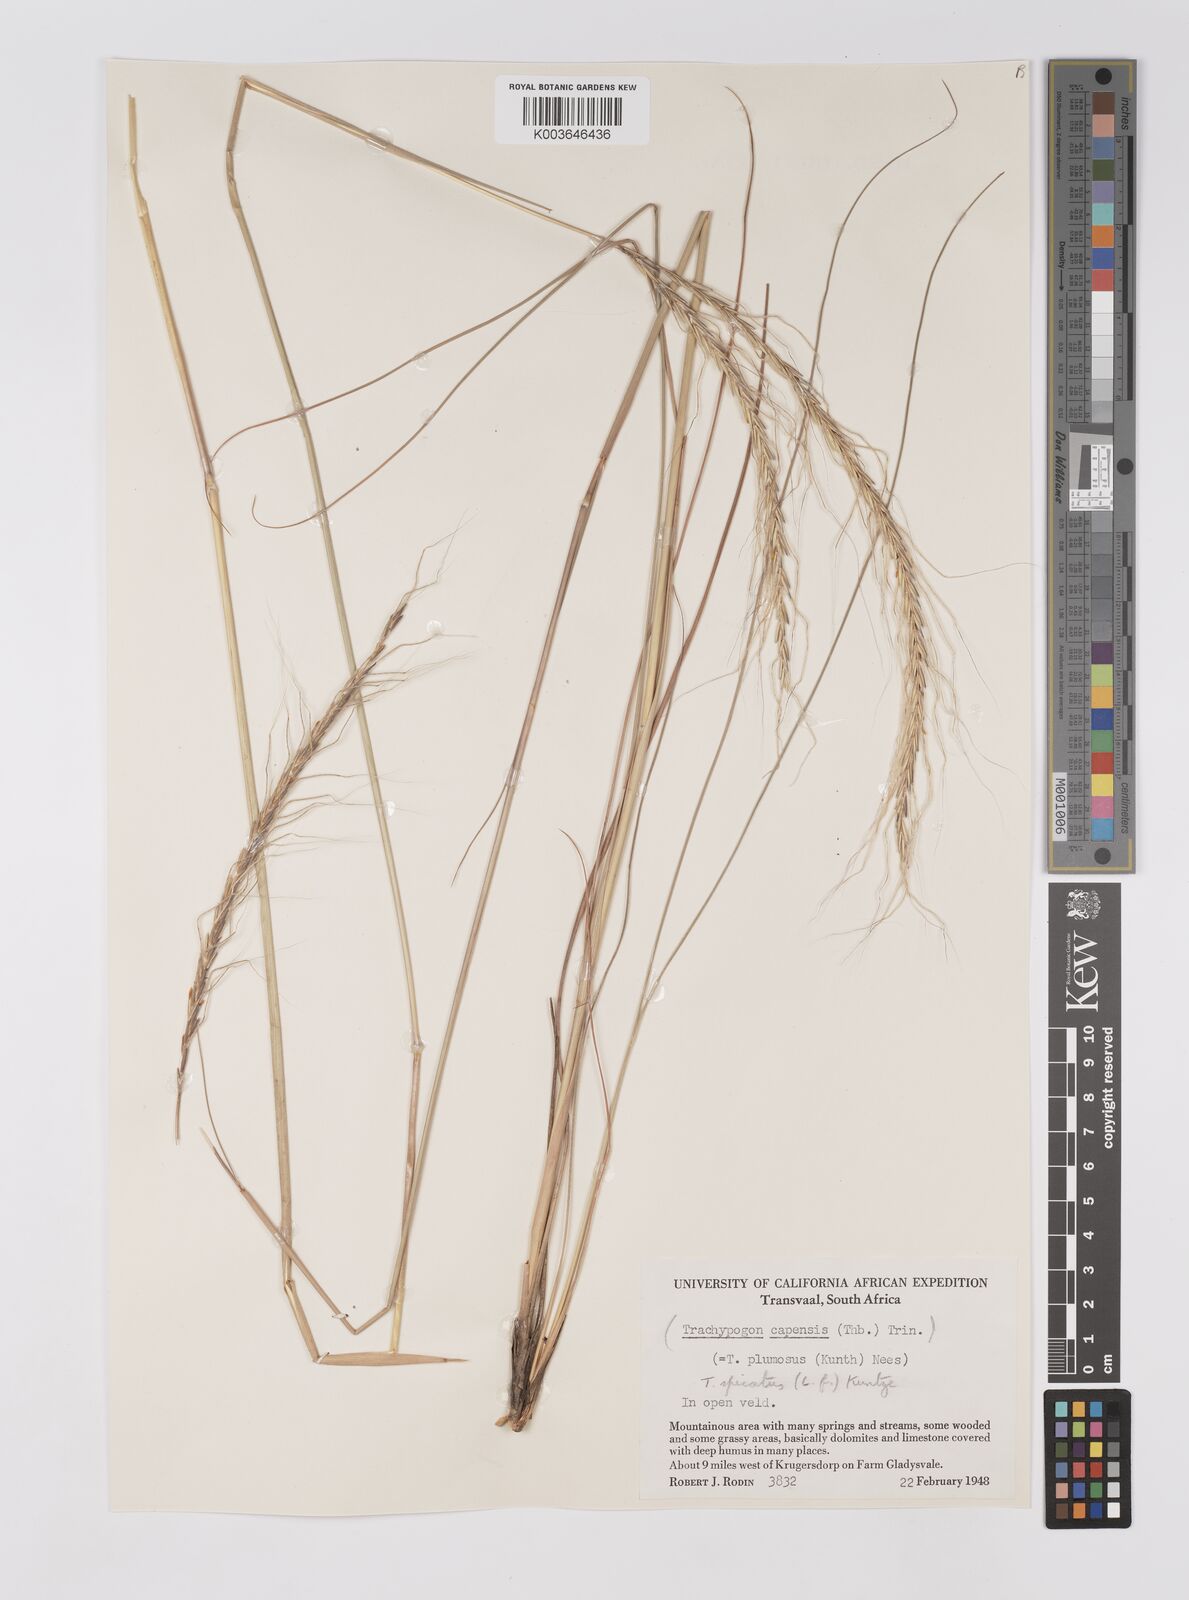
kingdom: Plantae
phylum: Tracheophyta
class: Liliopsida
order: Poales
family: Poaceae
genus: Trachypogon
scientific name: Trachypogon spicatus
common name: Crinkle-awn
